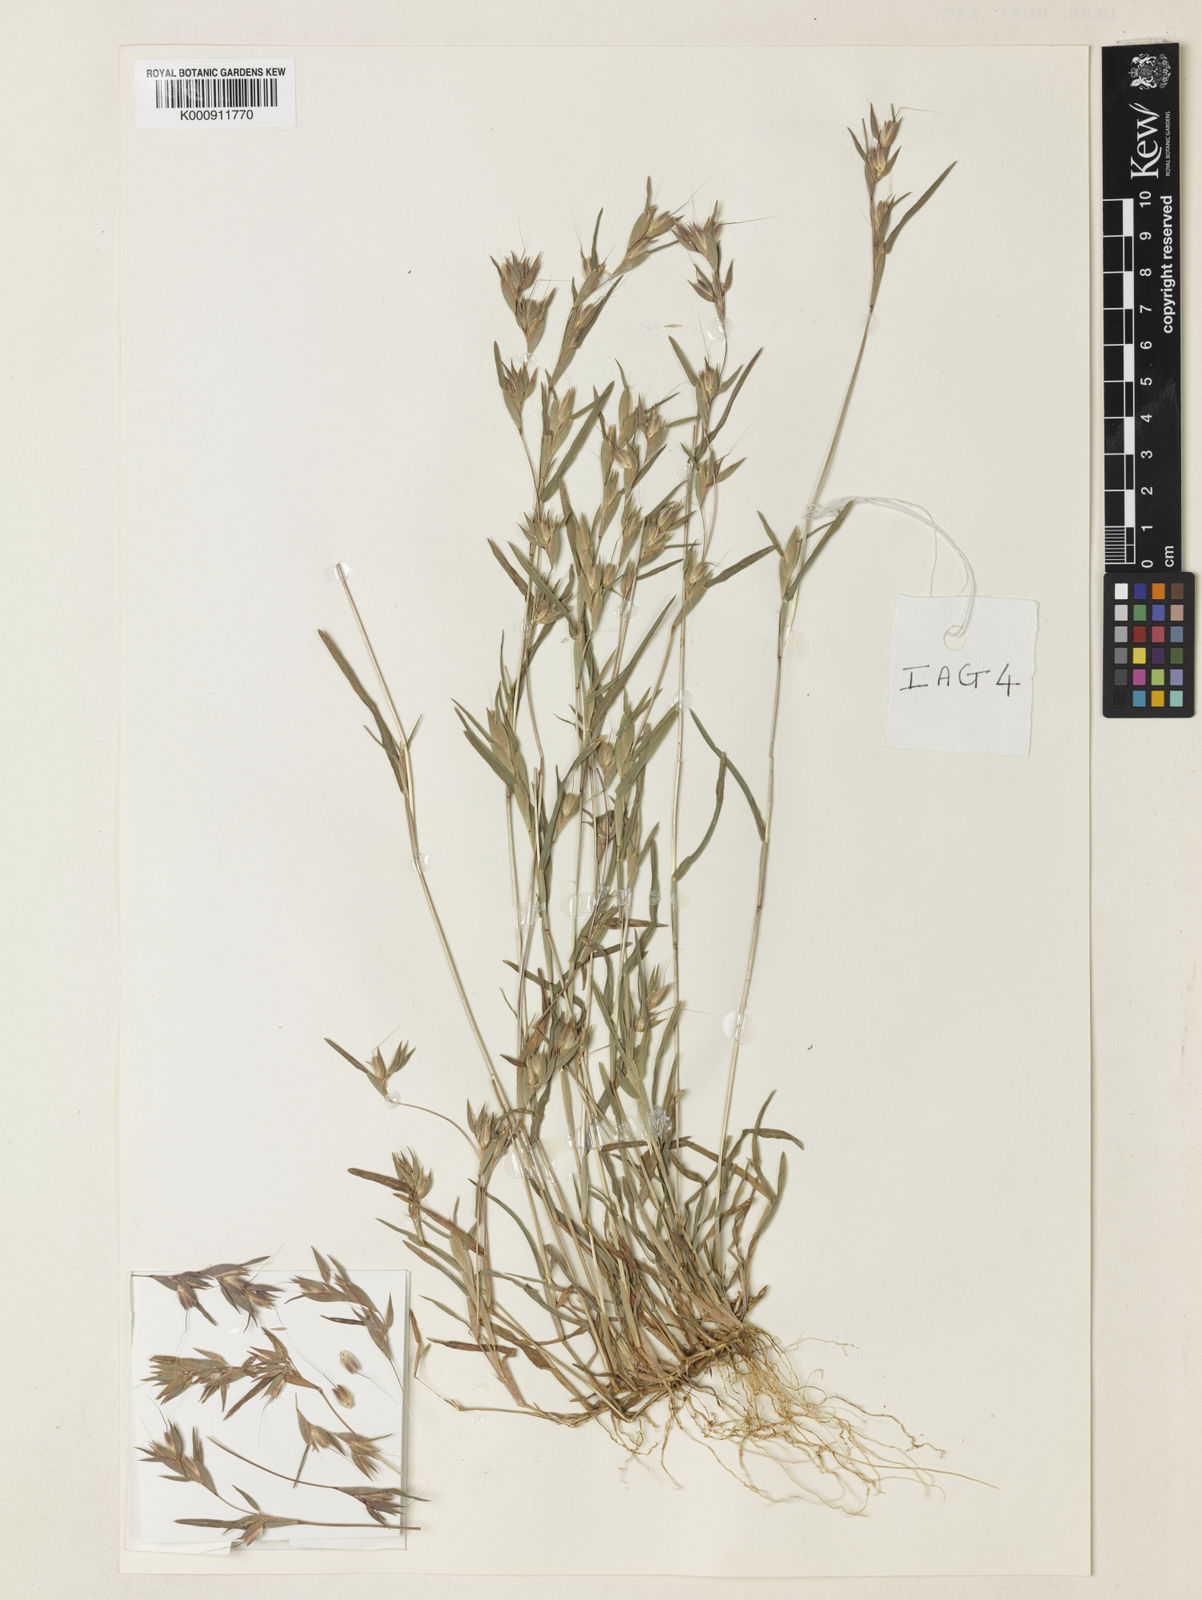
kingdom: Plantae
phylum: Tracheophyta
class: Liliopsida
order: Poales
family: Poaceae
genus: Iseilema
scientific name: Iseilema
